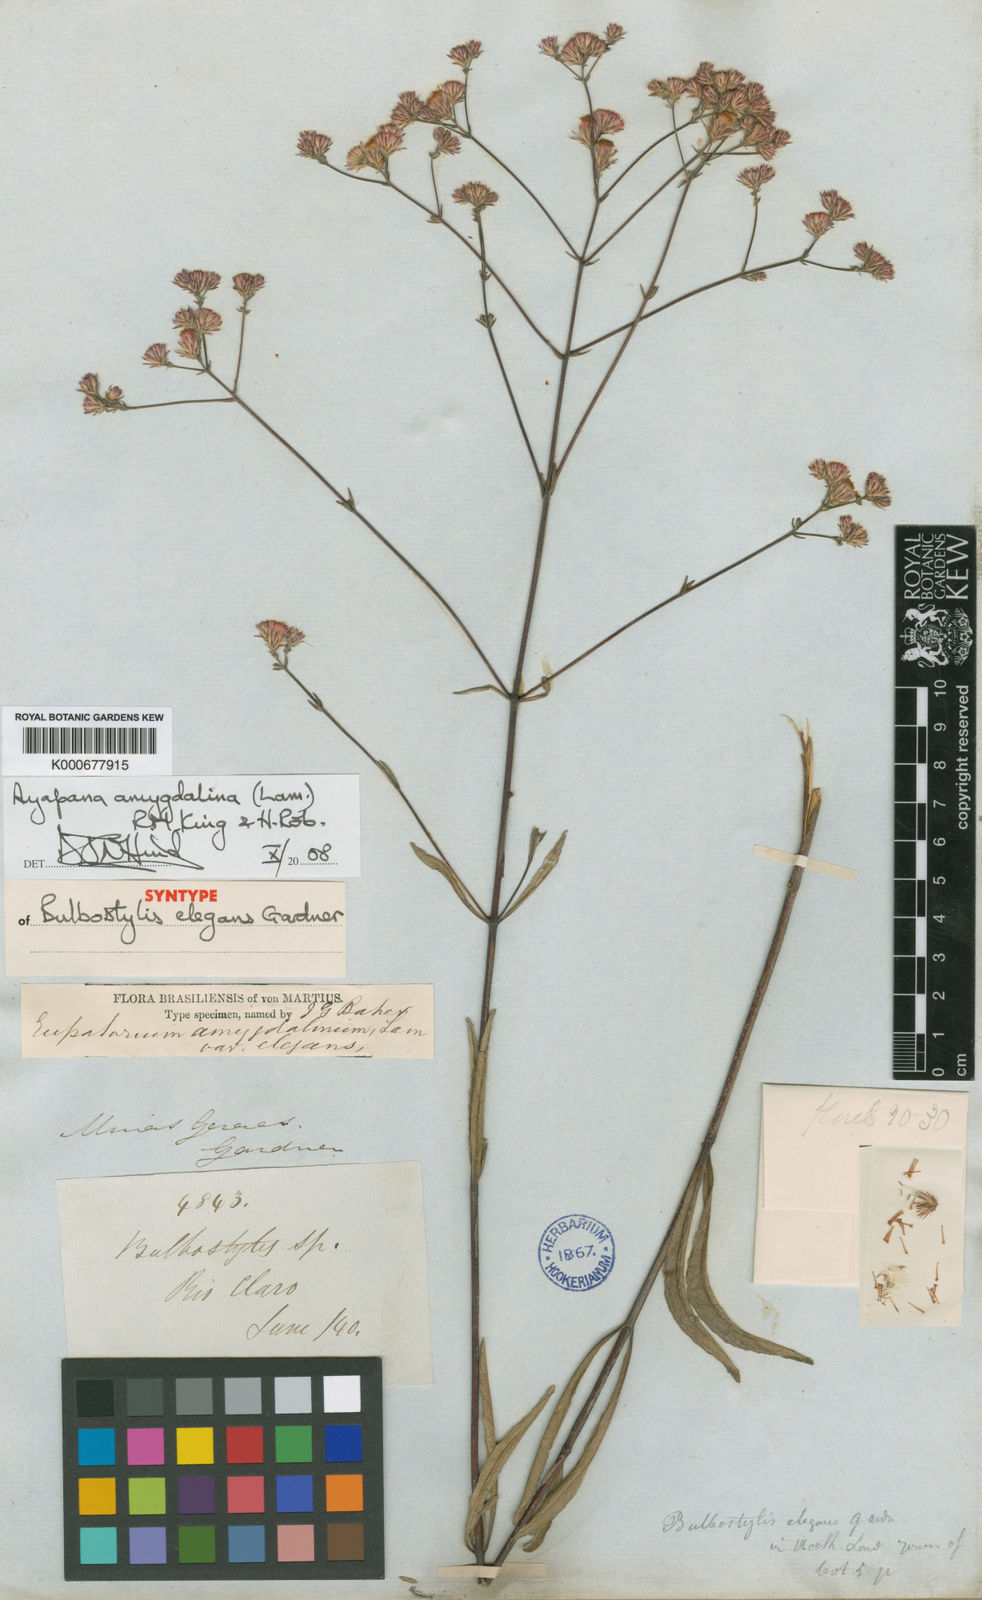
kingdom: Plantae
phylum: Tracheophyta
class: Magnoliopsida
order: Asterales
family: Asteraceae
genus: Ayapana
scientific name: Ayapana amygdalina
